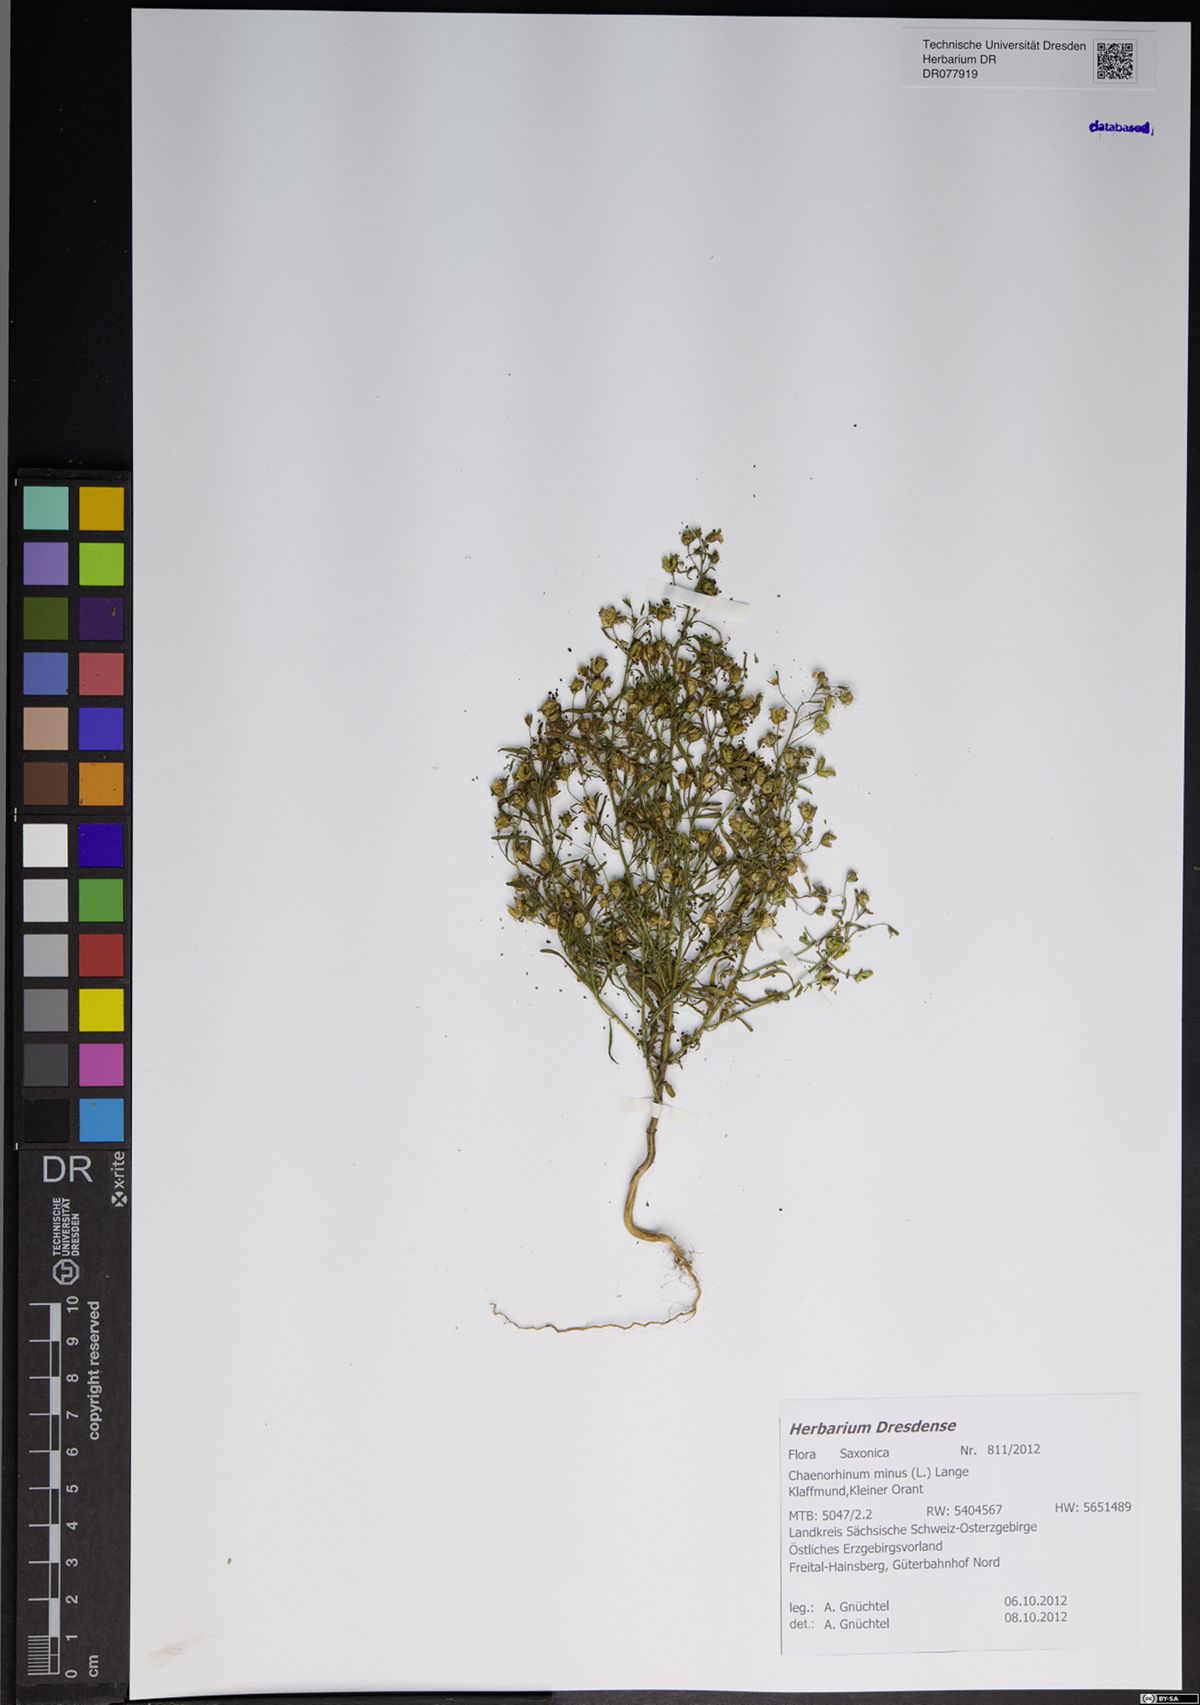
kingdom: Plantae
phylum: Tracheophyta
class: Magnoliopsida
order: Lamiales
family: Plantaginaceae
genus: Chaenorhinum
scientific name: Chaenorhinum minus
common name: Dwarf snapdragon
